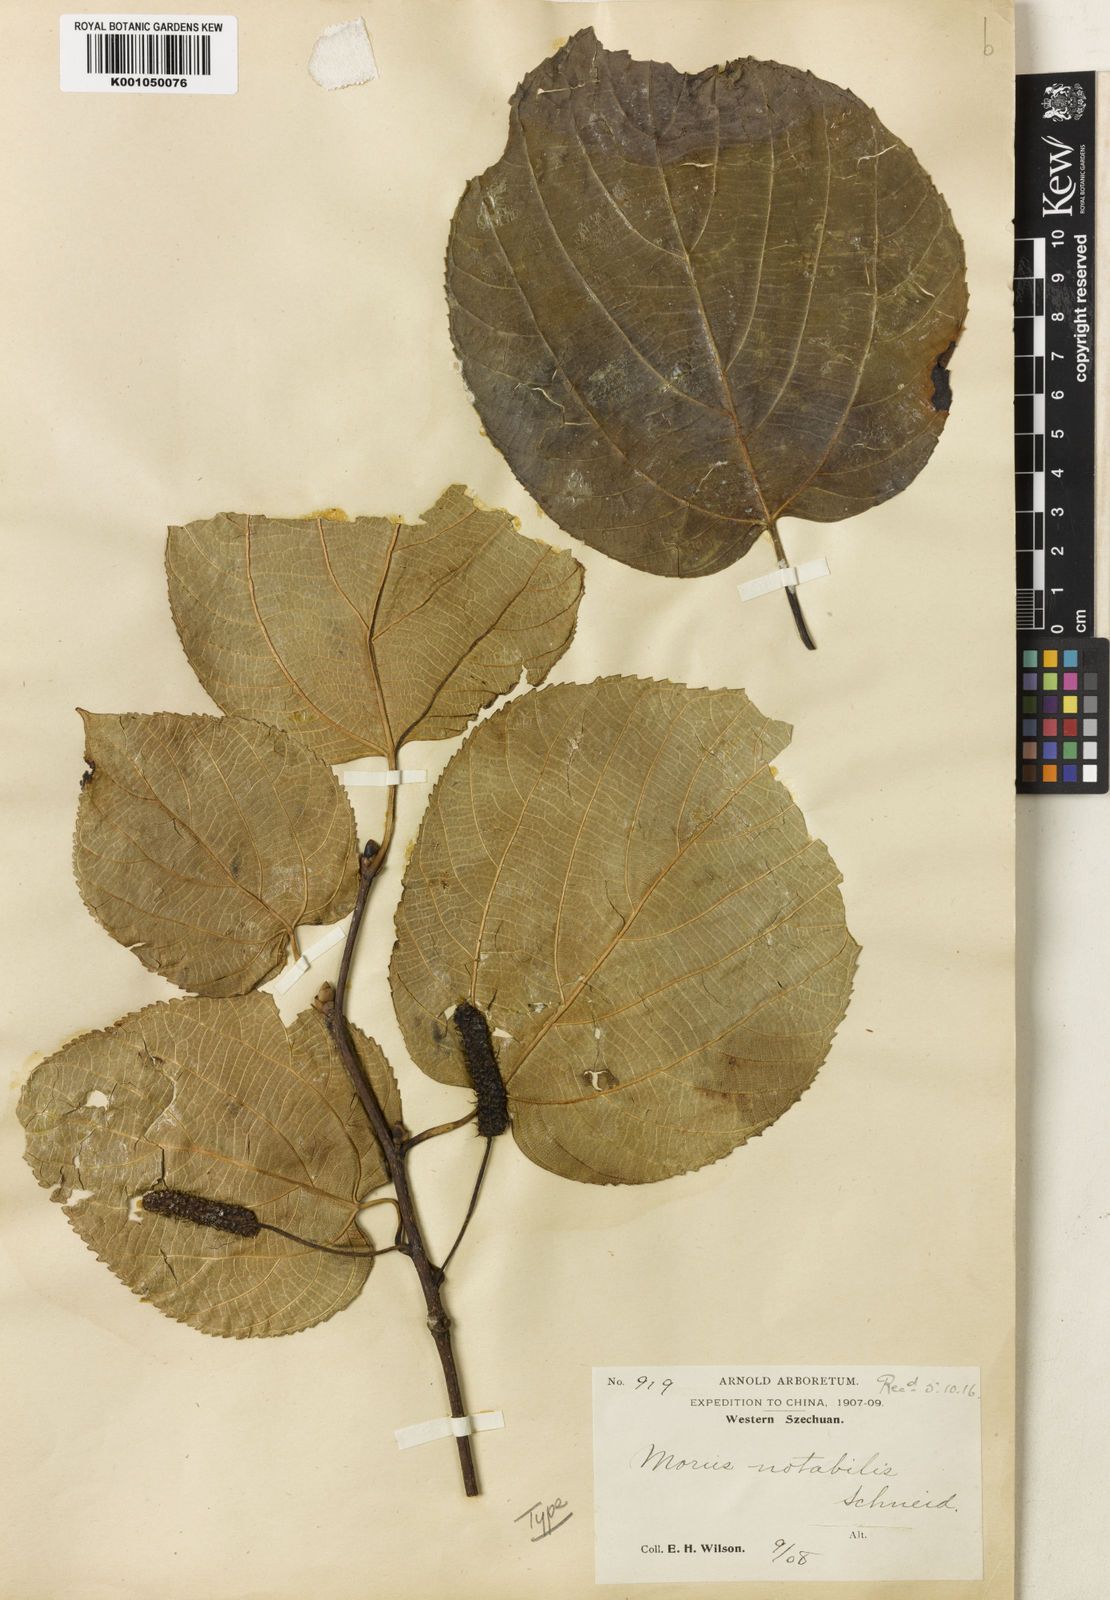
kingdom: Plantae
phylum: Tracheophyta
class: Magnoliopsida
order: Rosales
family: Moraceae
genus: Morus
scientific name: Morus notabilis
